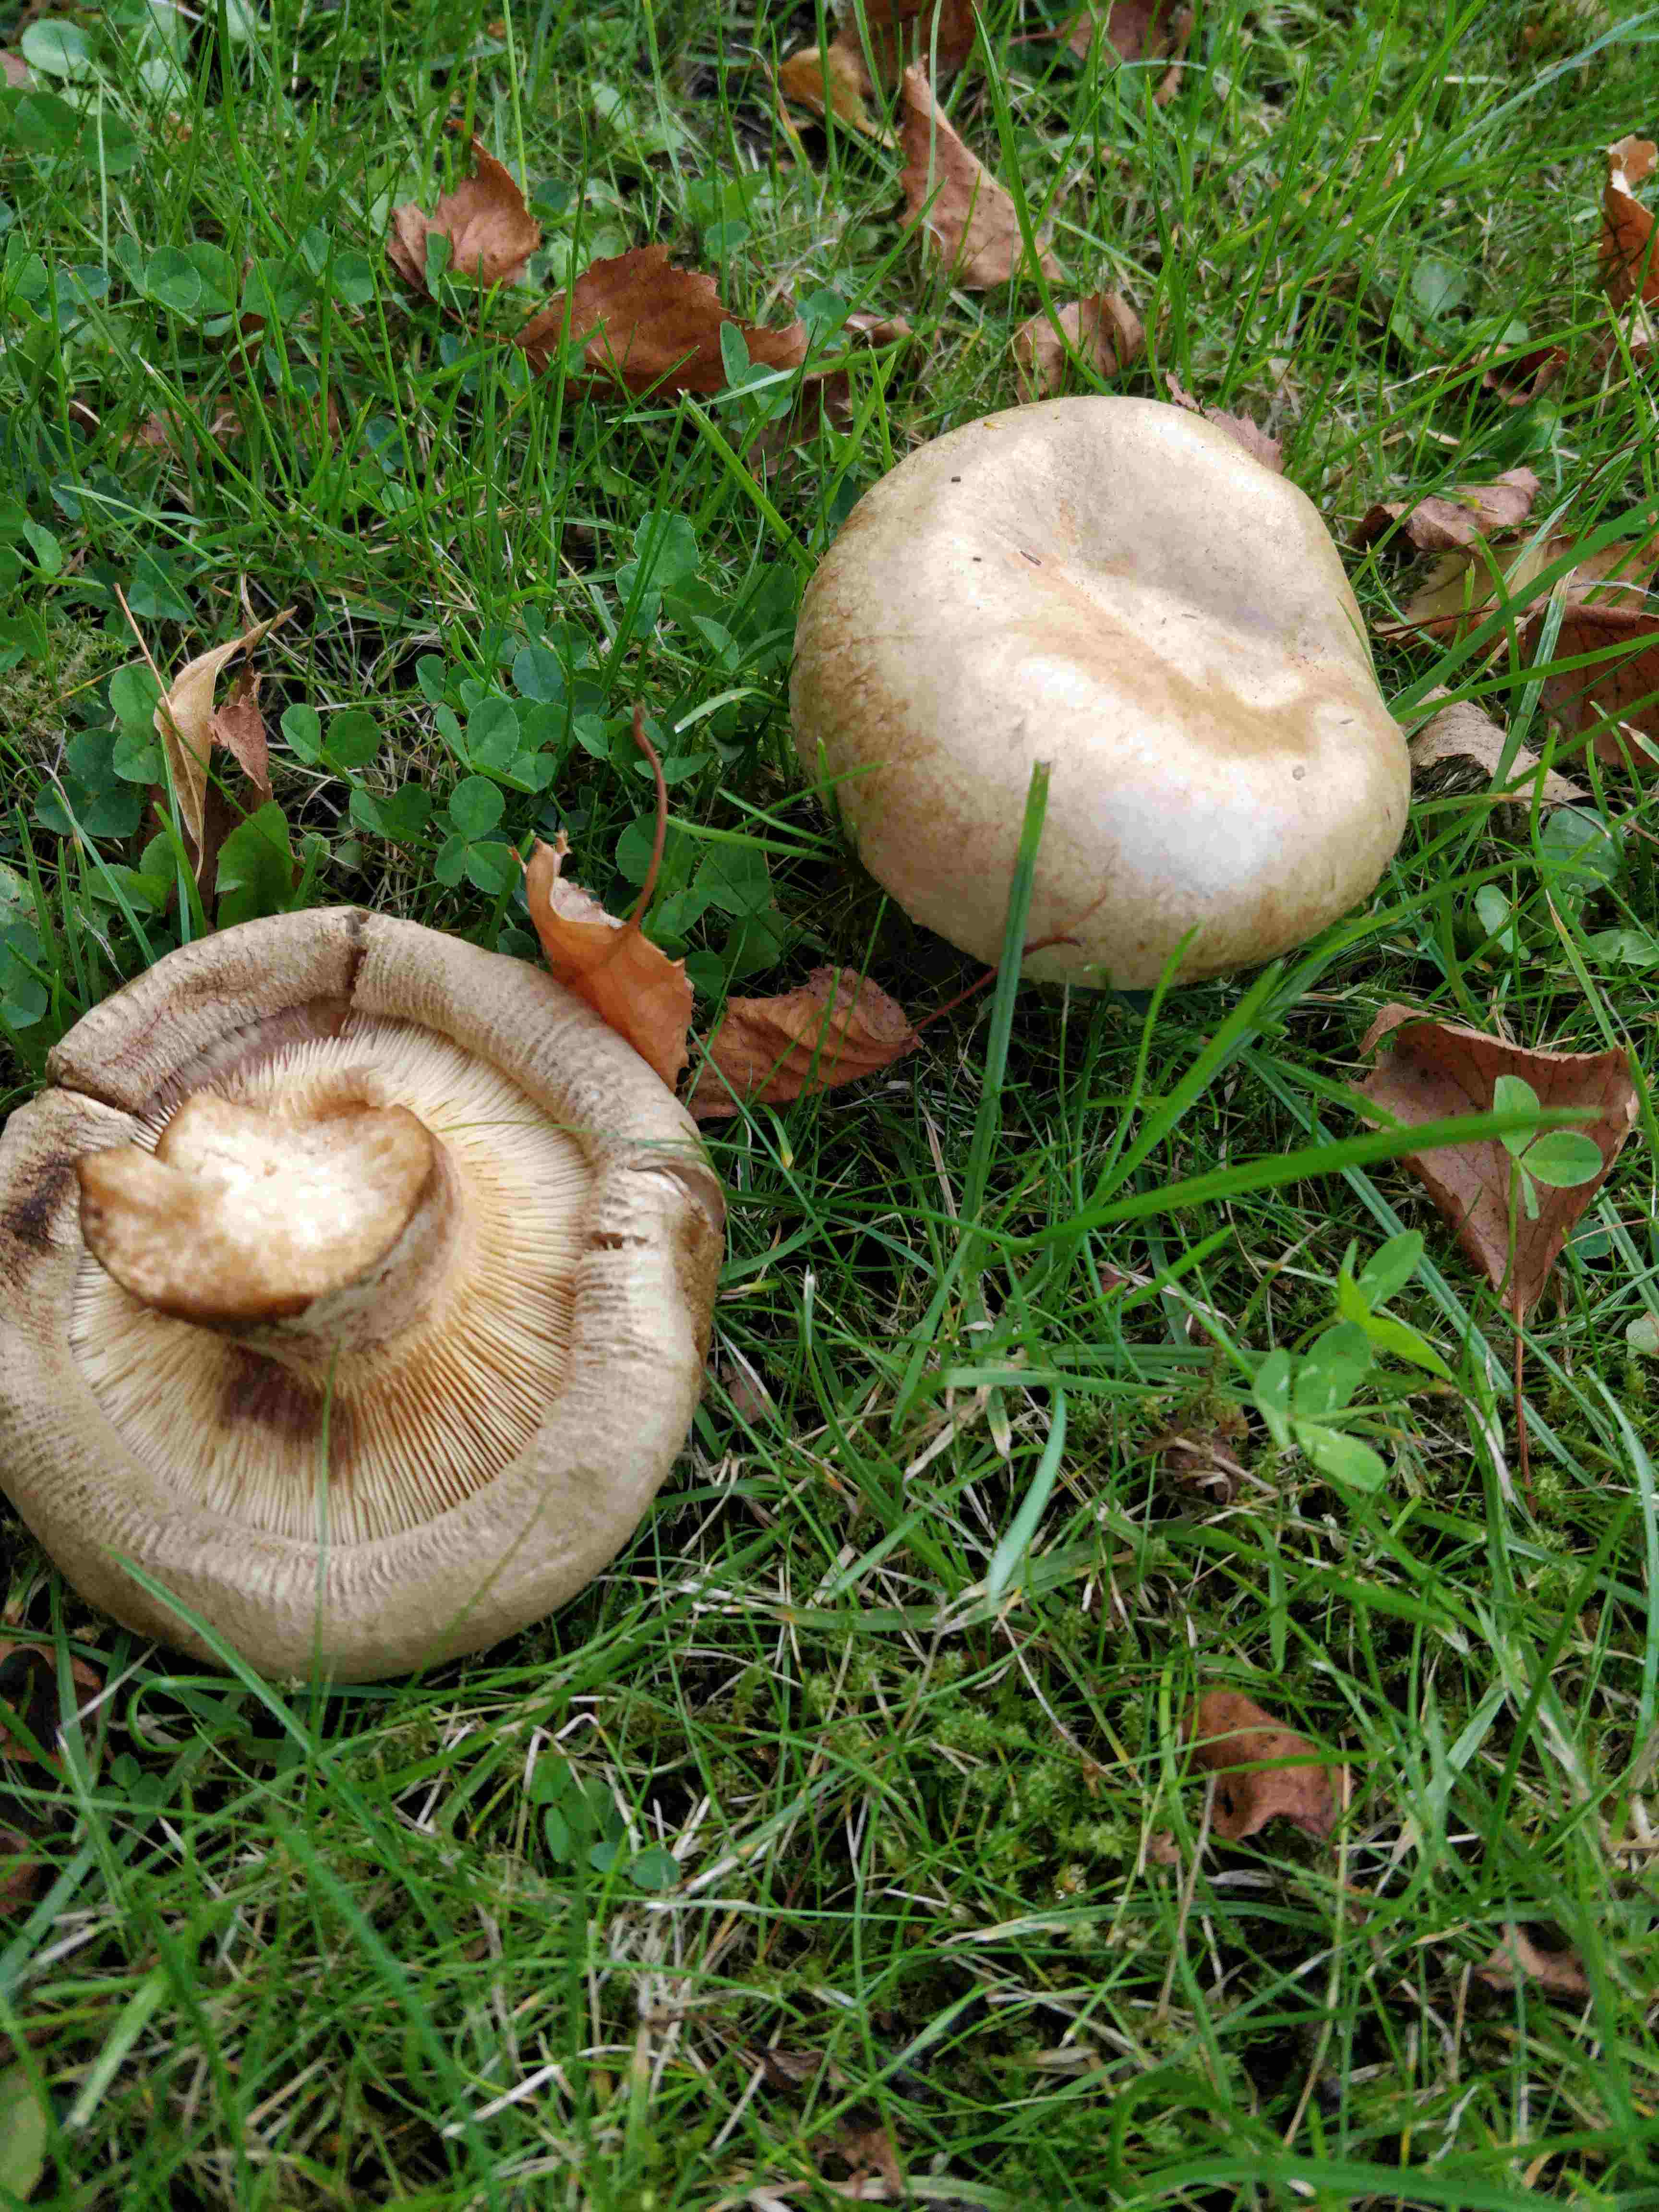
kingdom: Fungi
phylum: Basidiomycota
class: Agaricomycetes
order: Boletales
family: Paxillaceae
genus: Paxillus
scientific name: Paxillus
